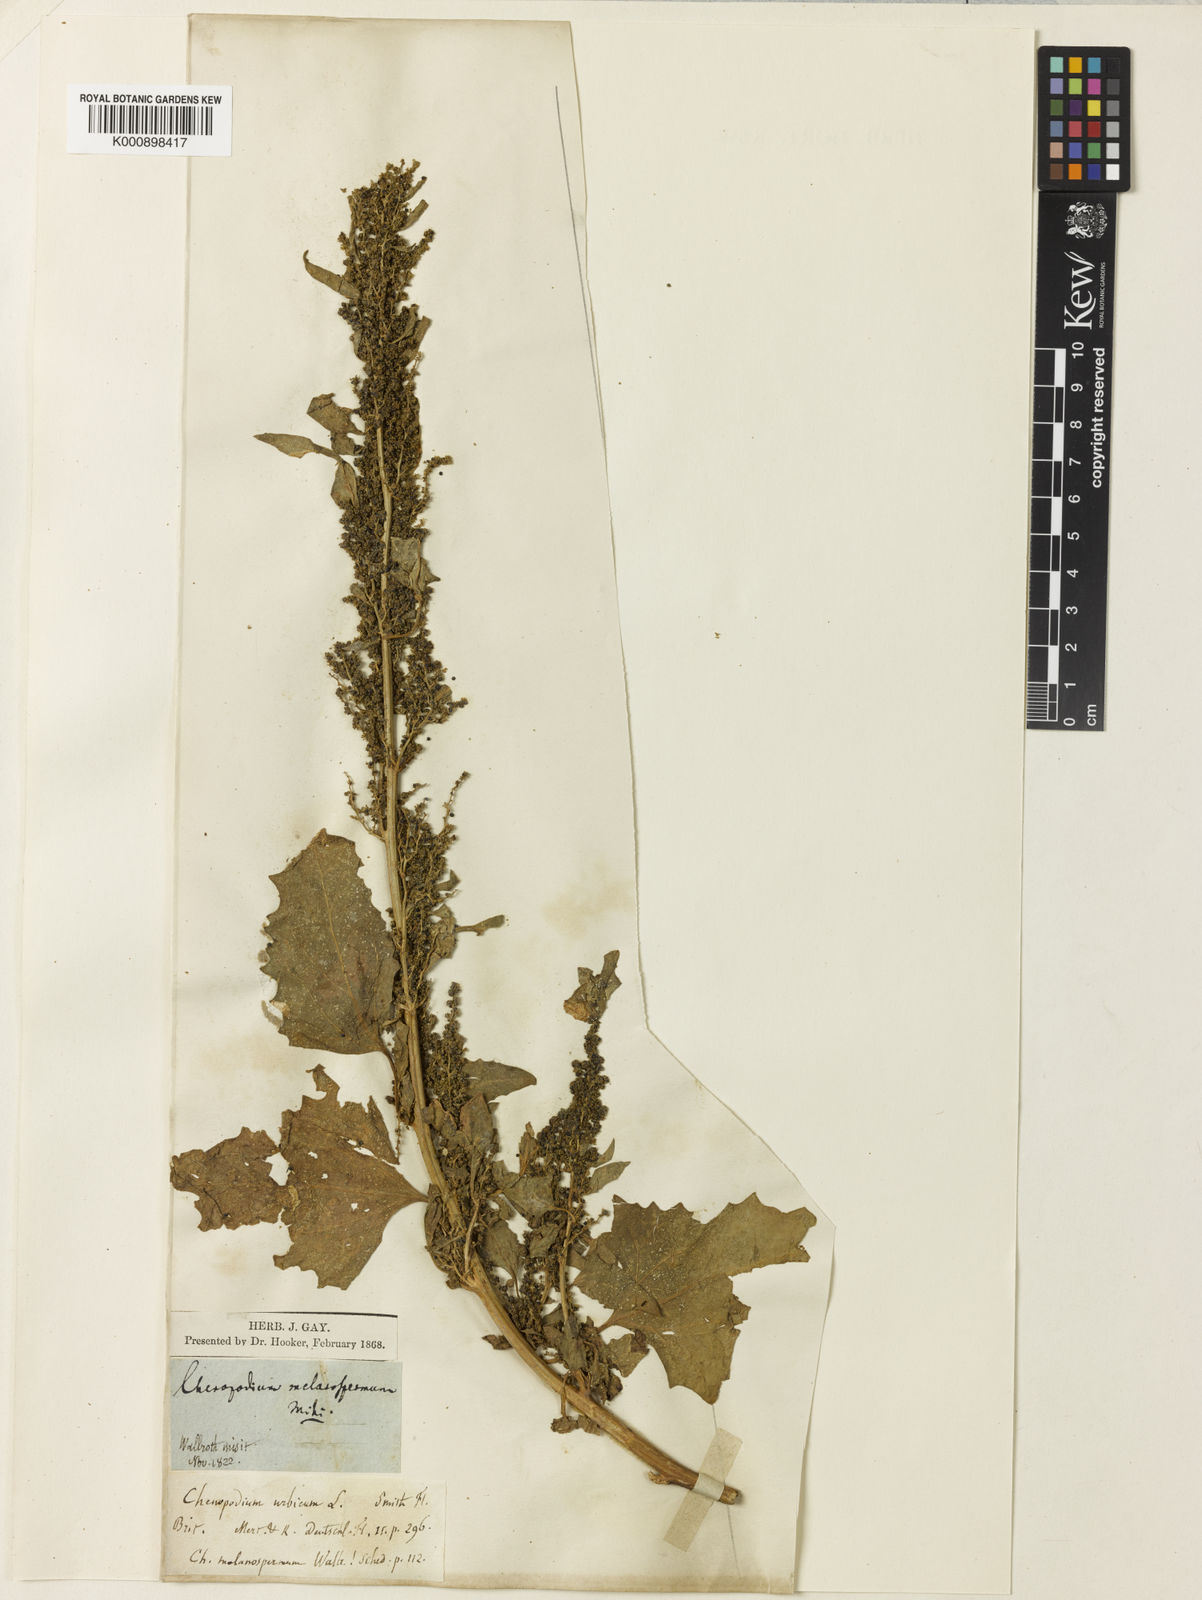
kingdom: Plantae
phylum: Tracheophyta
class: Magnoliopsida
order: Caryophyllales
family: Amaranthaceae
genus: Oxybasis
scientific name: Oxybasis urbica
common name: City goosefoot
